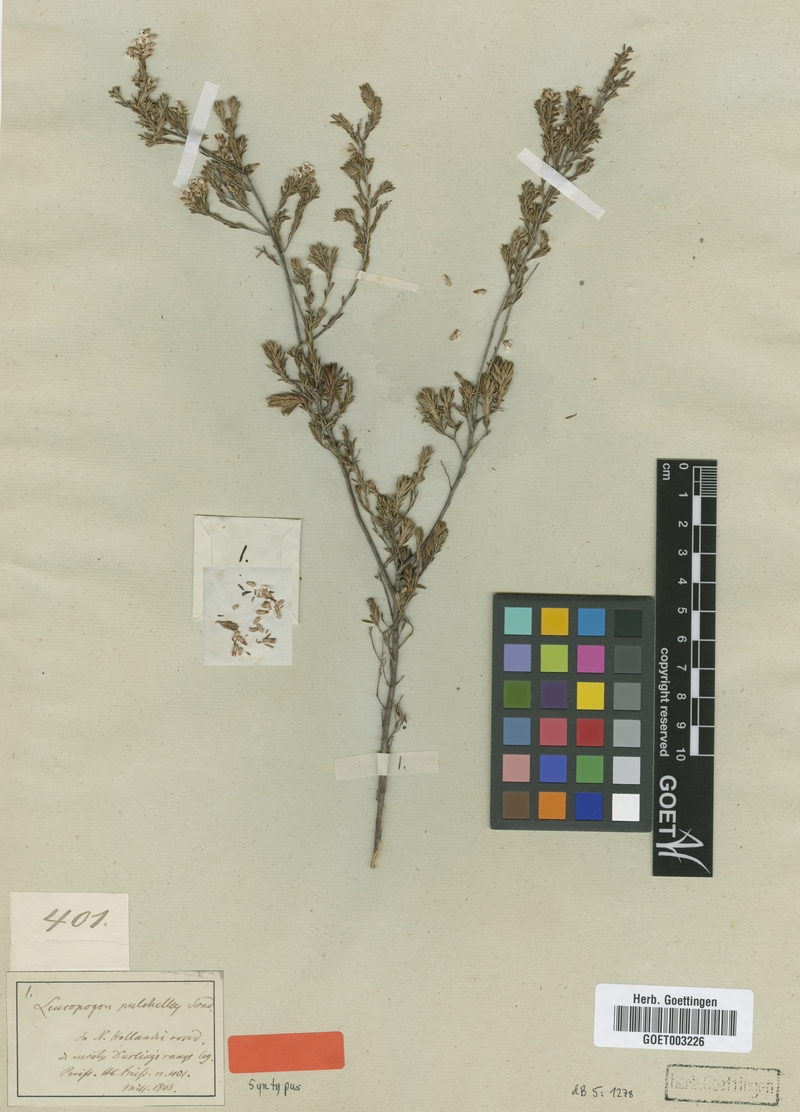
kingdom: Plantae
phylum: Tracheophyta
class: Magnoliopsida
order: Ericales
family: Ericaceae
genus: Leucopogon
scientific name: Leucopogon pulchellus
